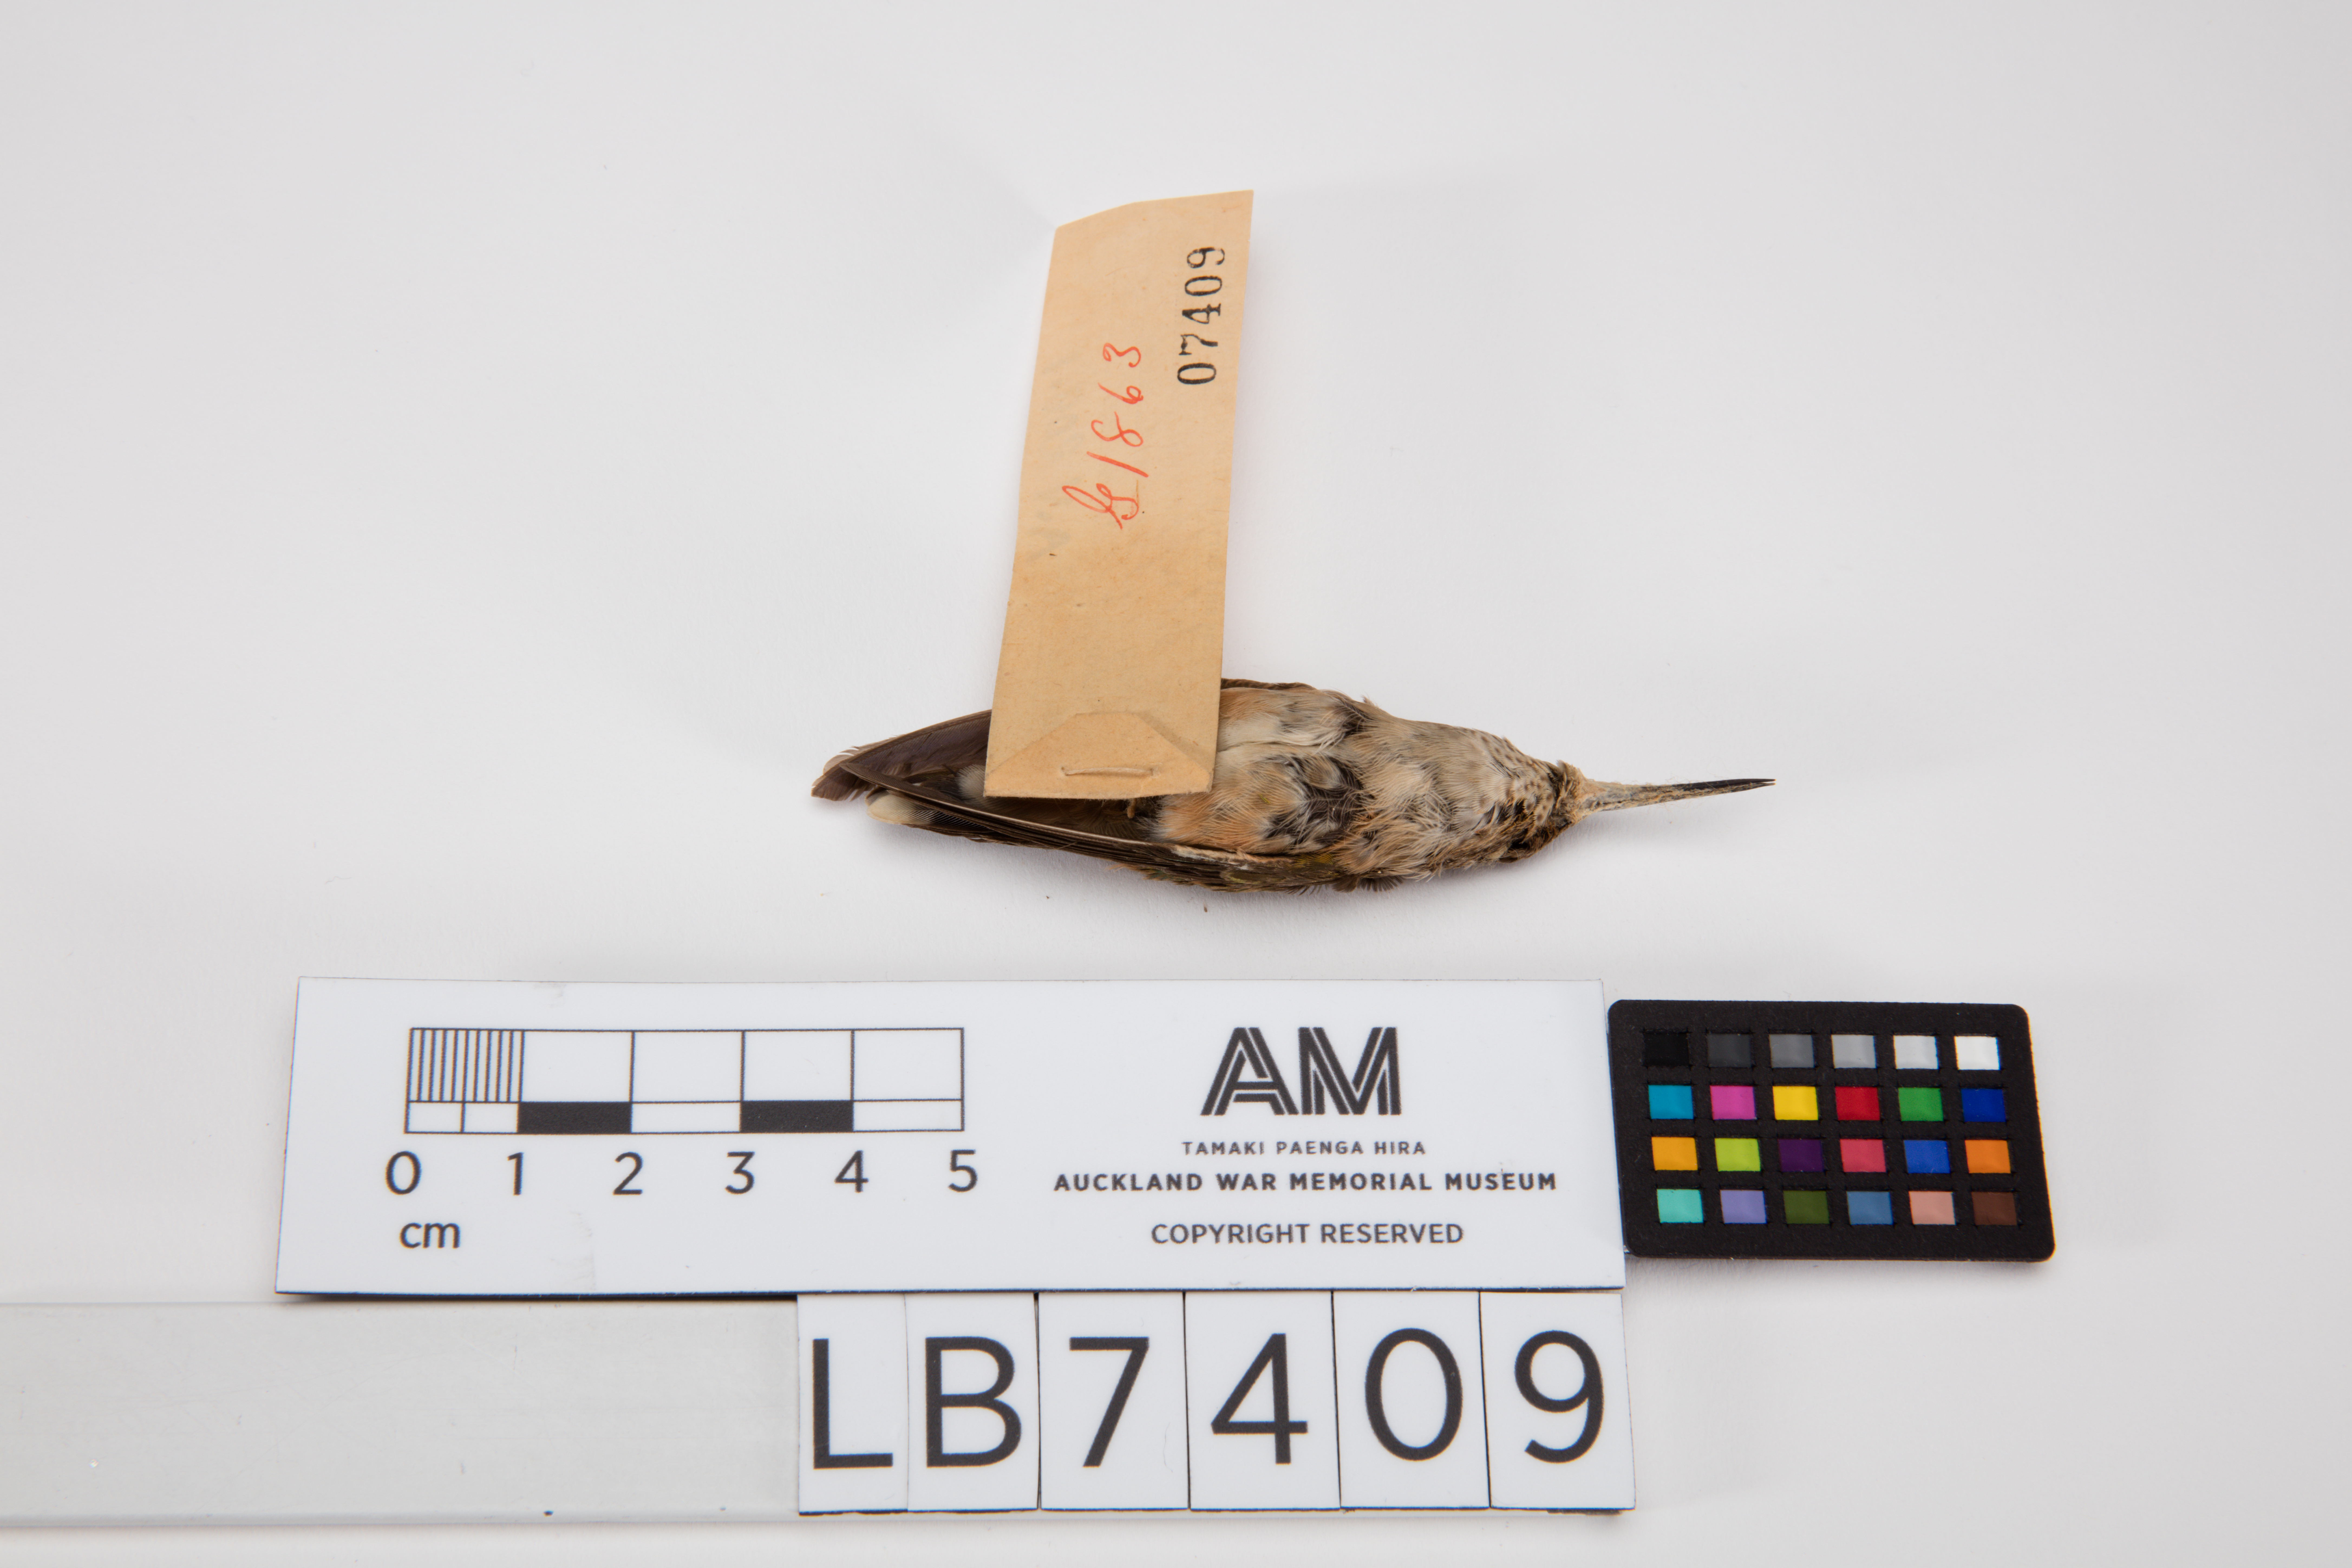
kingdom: Animalia
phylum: Chordata
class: Aves
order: Apodiformes
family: Trochilidae
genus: Selasphorus
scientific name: Selasphorus platycercus
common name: Broad-tailed hummingbird
